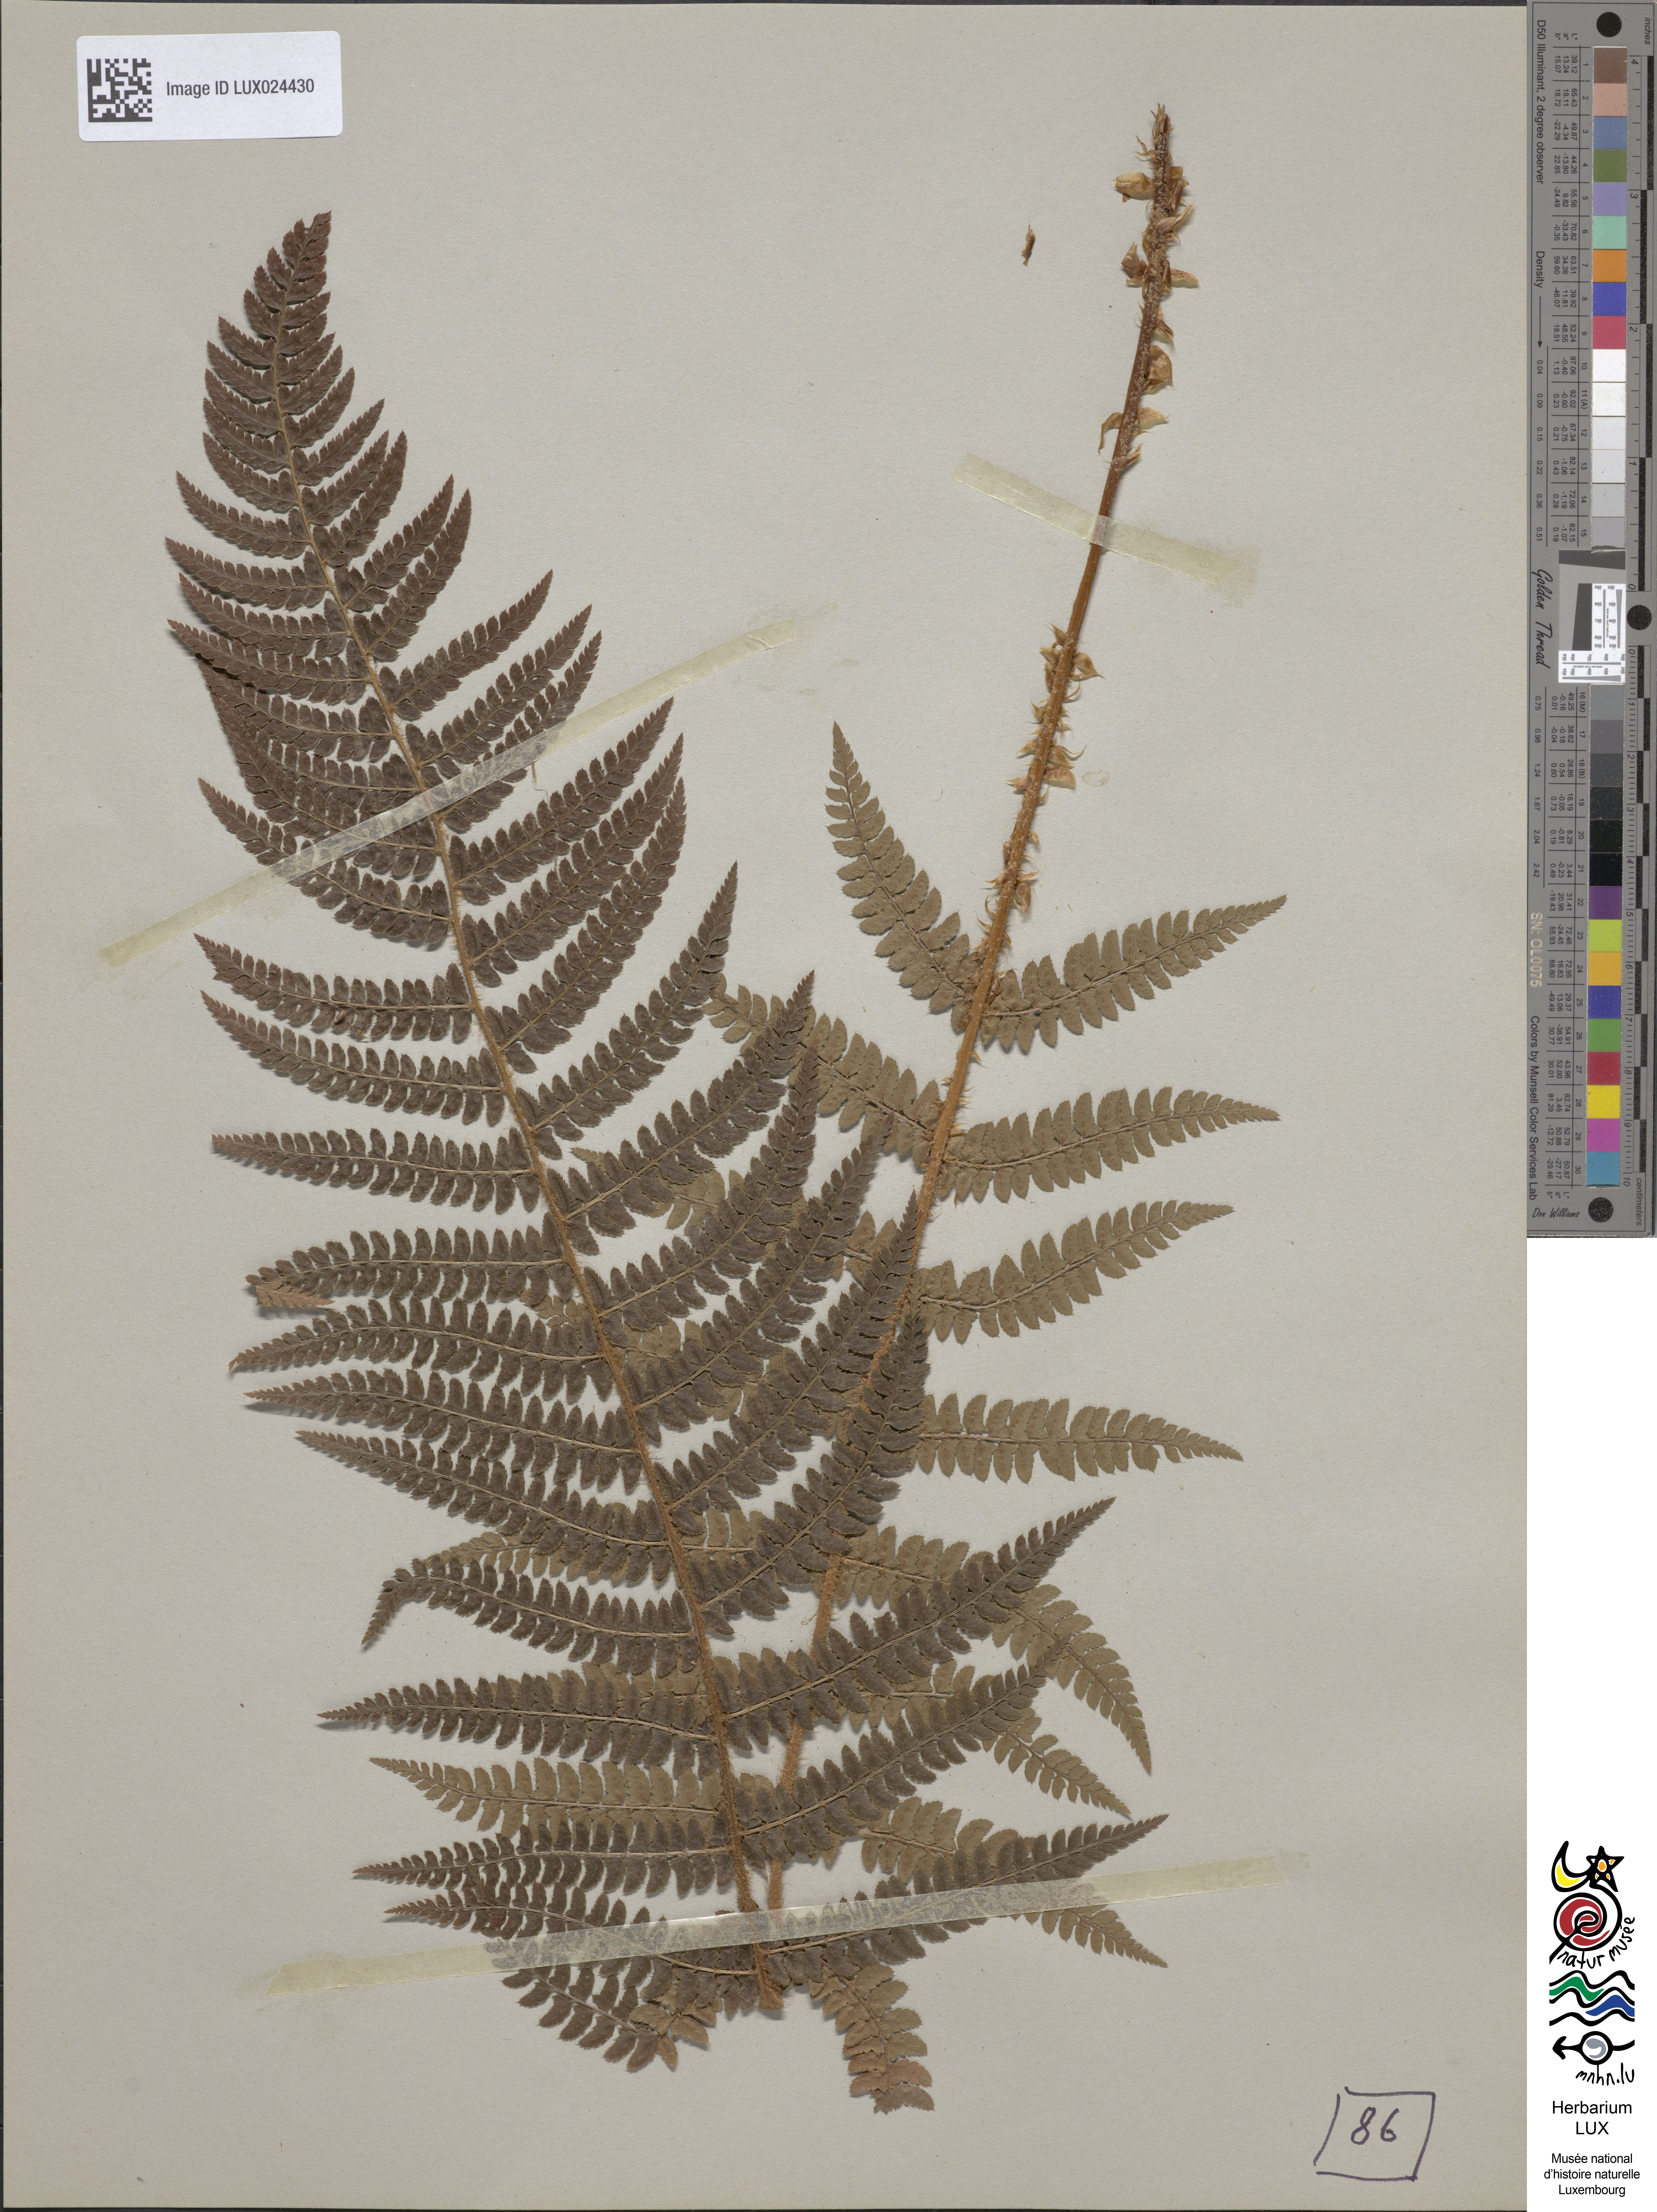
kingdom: Plantae
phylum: Tracheophyta
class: Polypodiopsida
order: Polypodiales
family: Dryopteridaceae
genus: Polystichum
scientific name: Polystichum aculeatum
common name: Hard shield-fern
